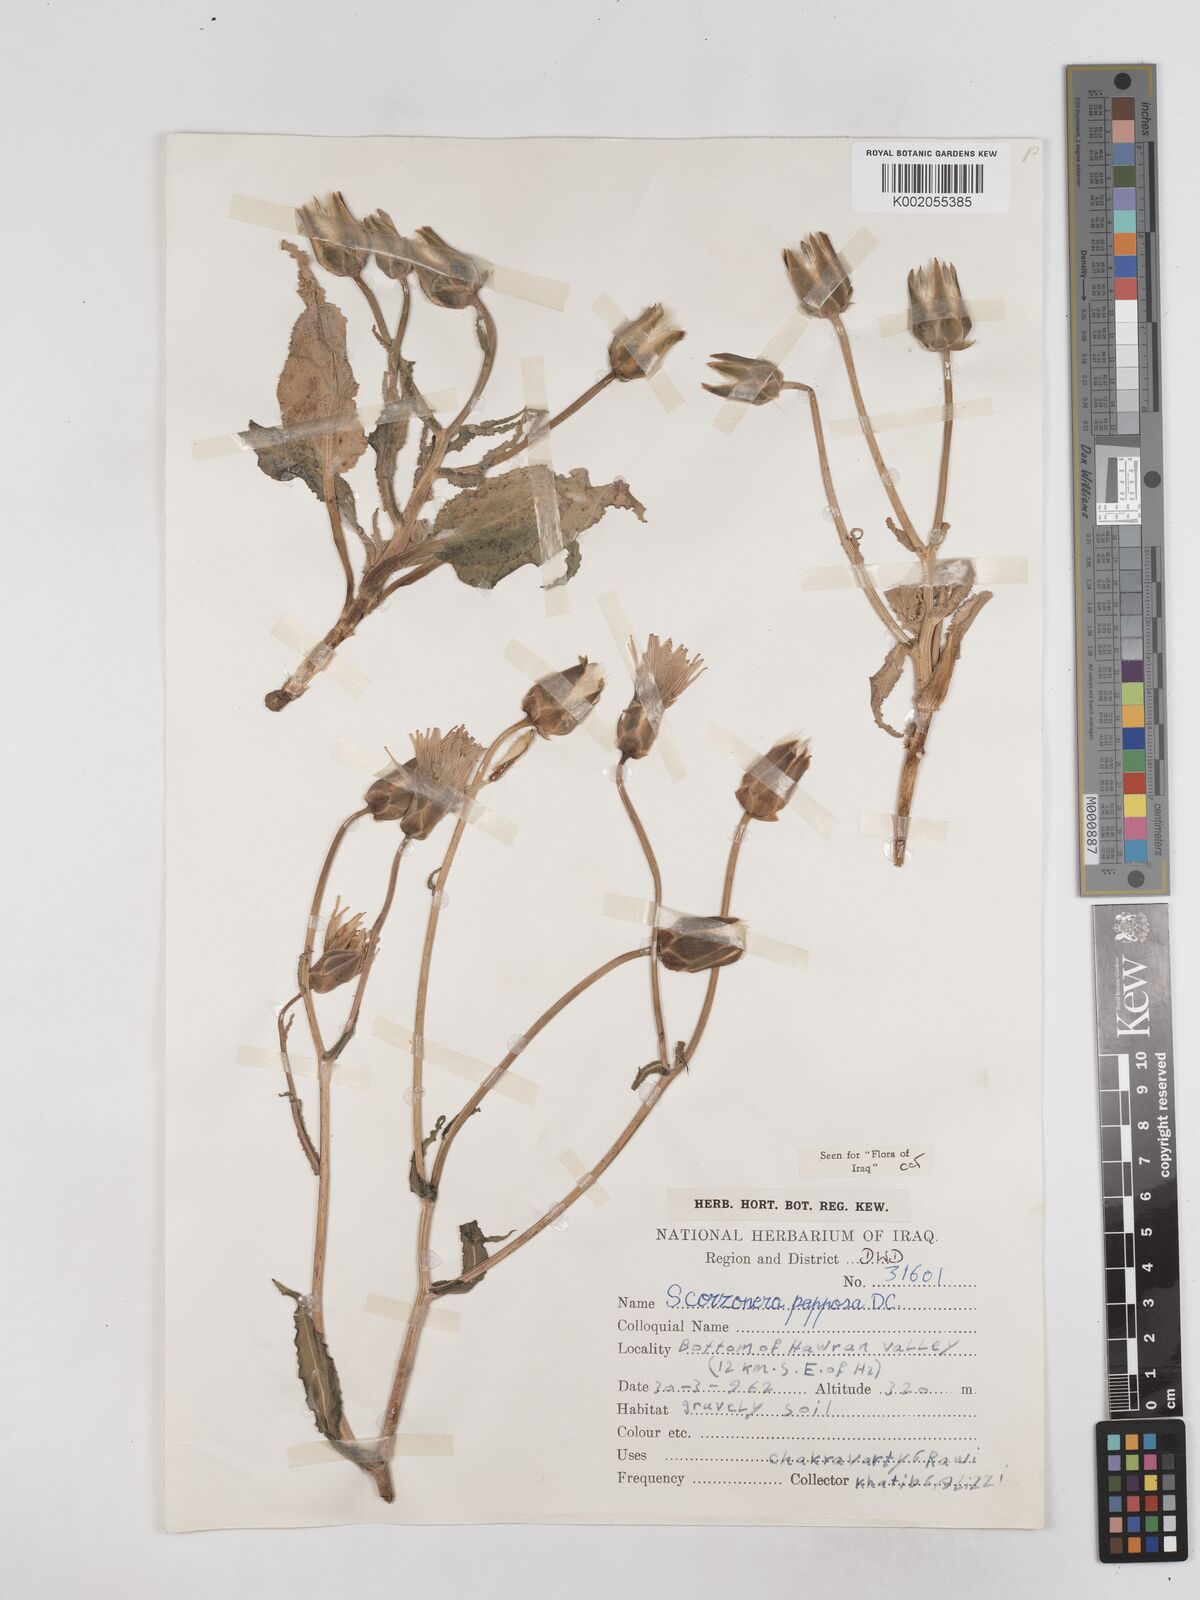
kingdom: Plantae
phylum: Tracheophyta
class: Magnoliopsida
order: Asterales
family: Asteraceae
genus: Pseudopodospermum
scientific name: Pseudopodospermum papposum
